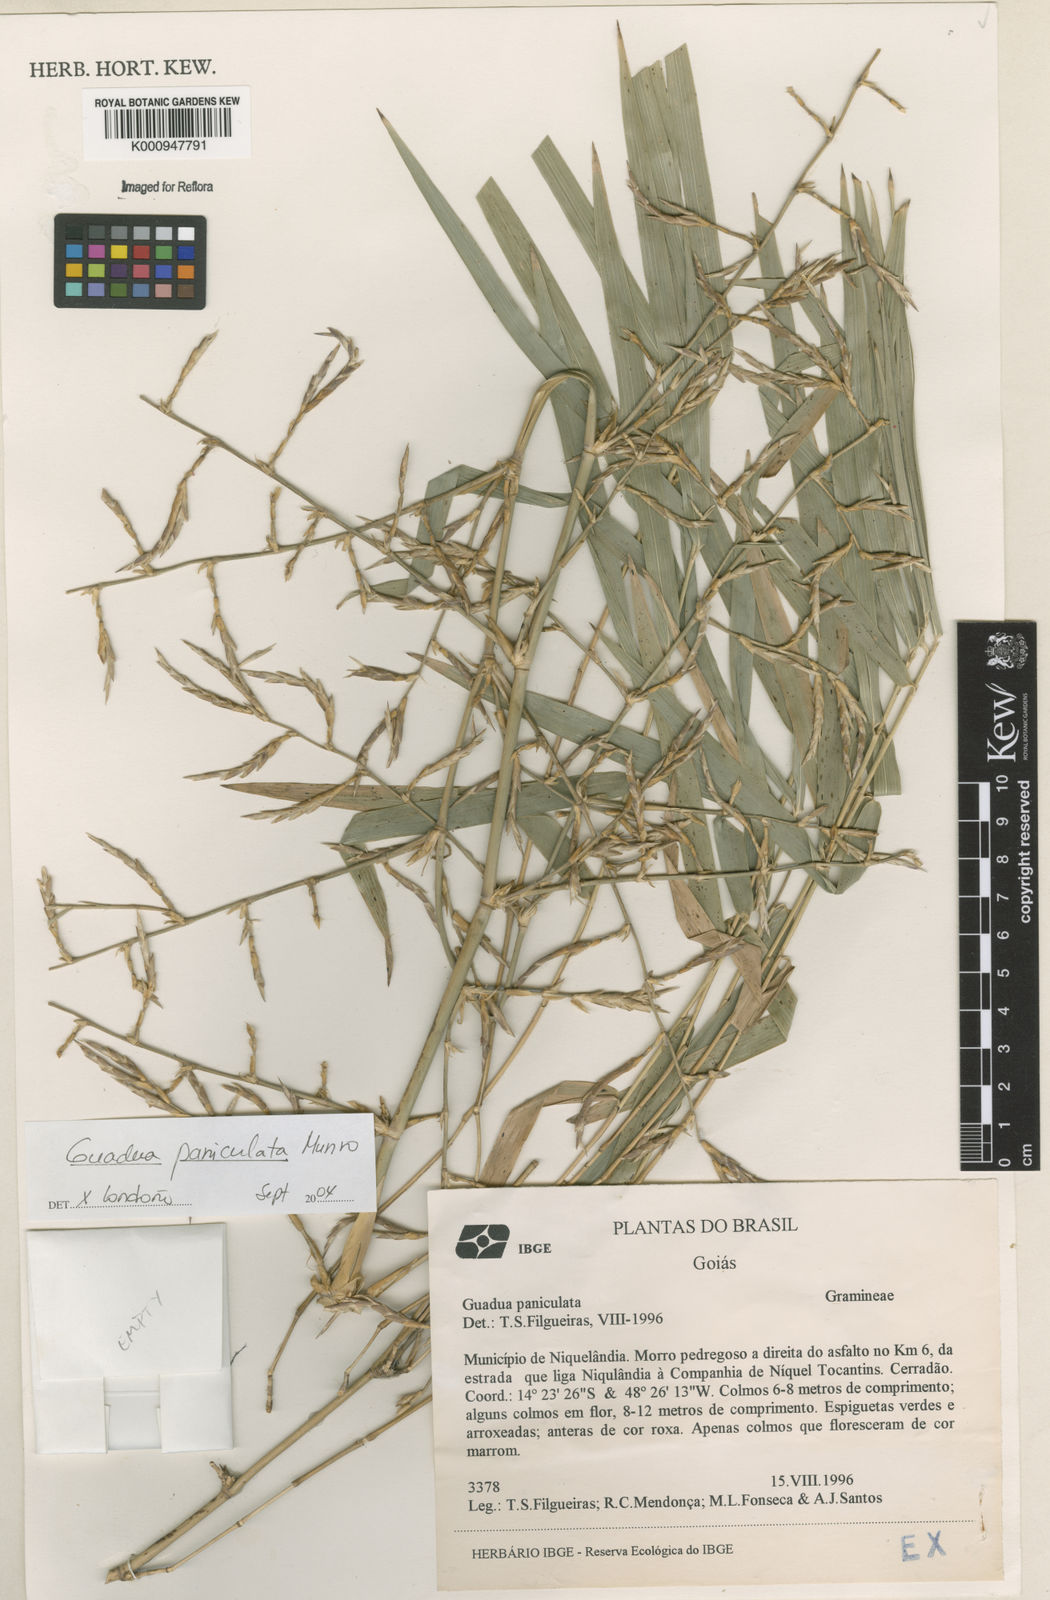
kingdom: Plantae
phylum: Tracheophyta
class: Liliopsida
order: Poales
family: Poaceae
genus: Guadua
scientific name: Guadua paniculata
